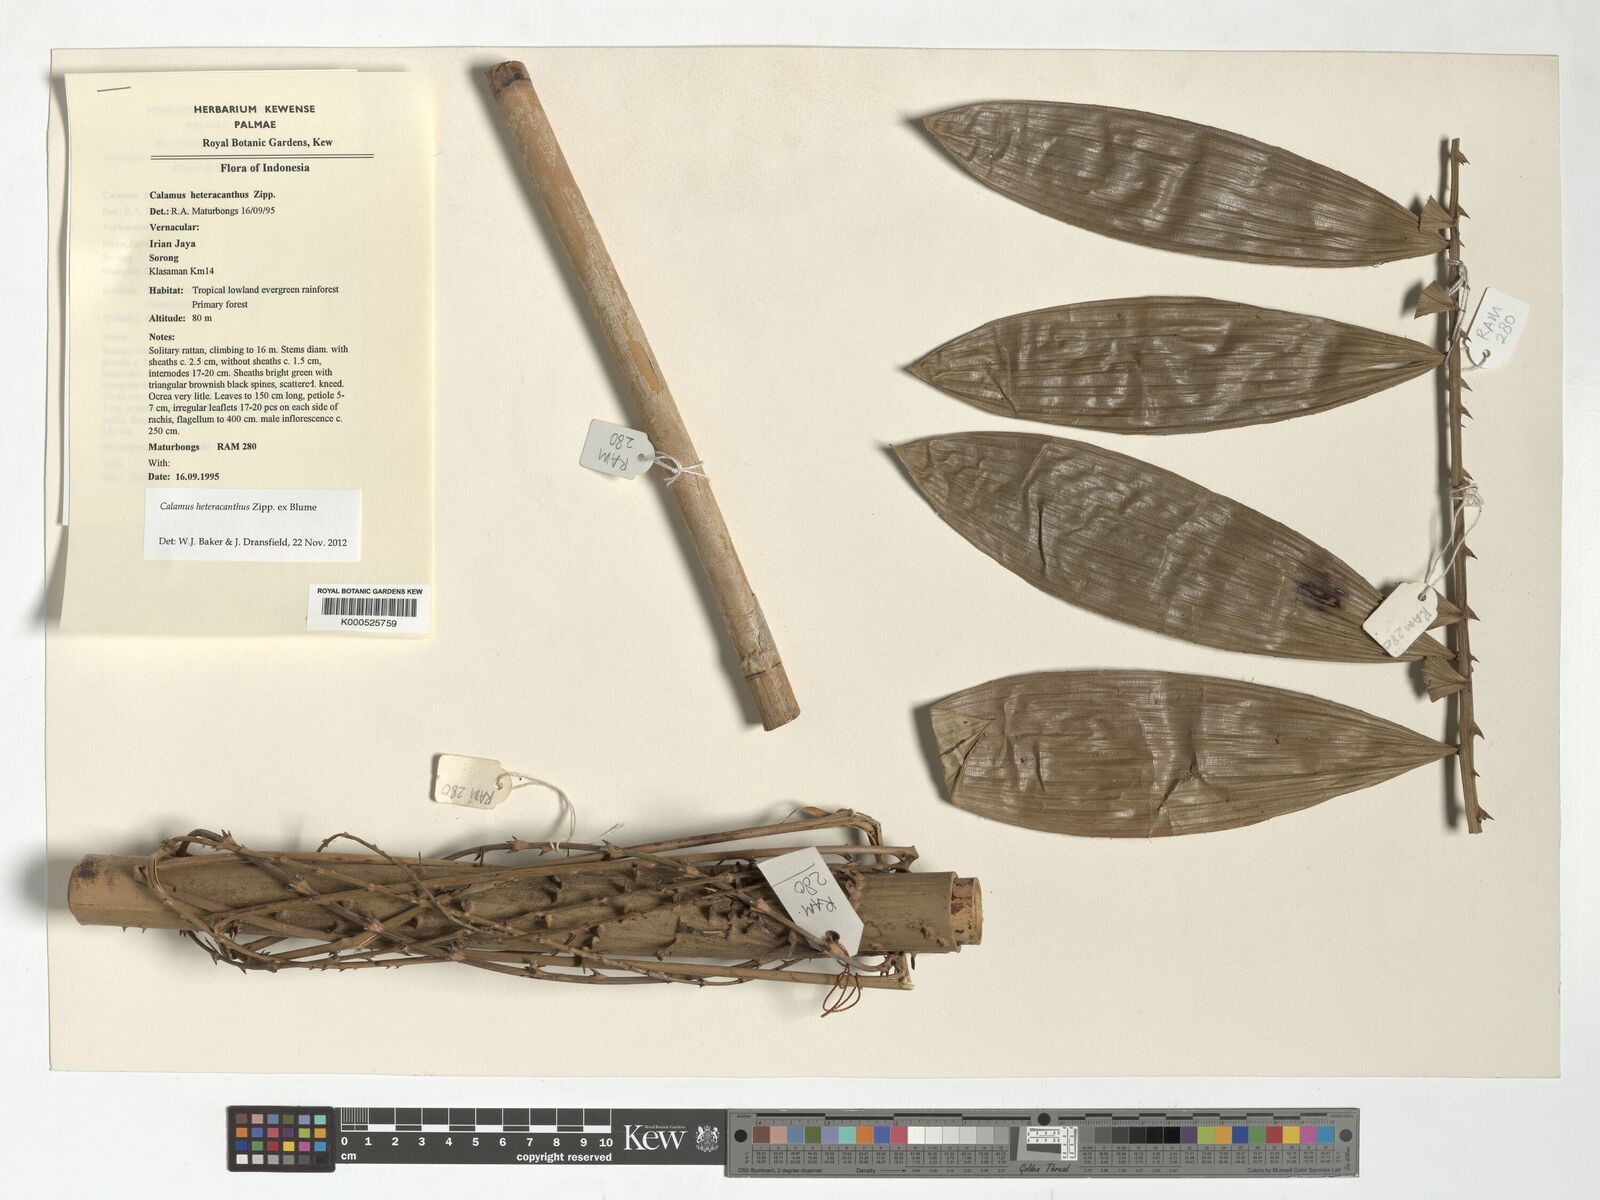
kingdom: Plantae
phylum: Tracheophyta
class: Liliopsida
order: Arecales
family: Arecaceae
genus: Calamus
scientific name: Calamus heteracanthus
